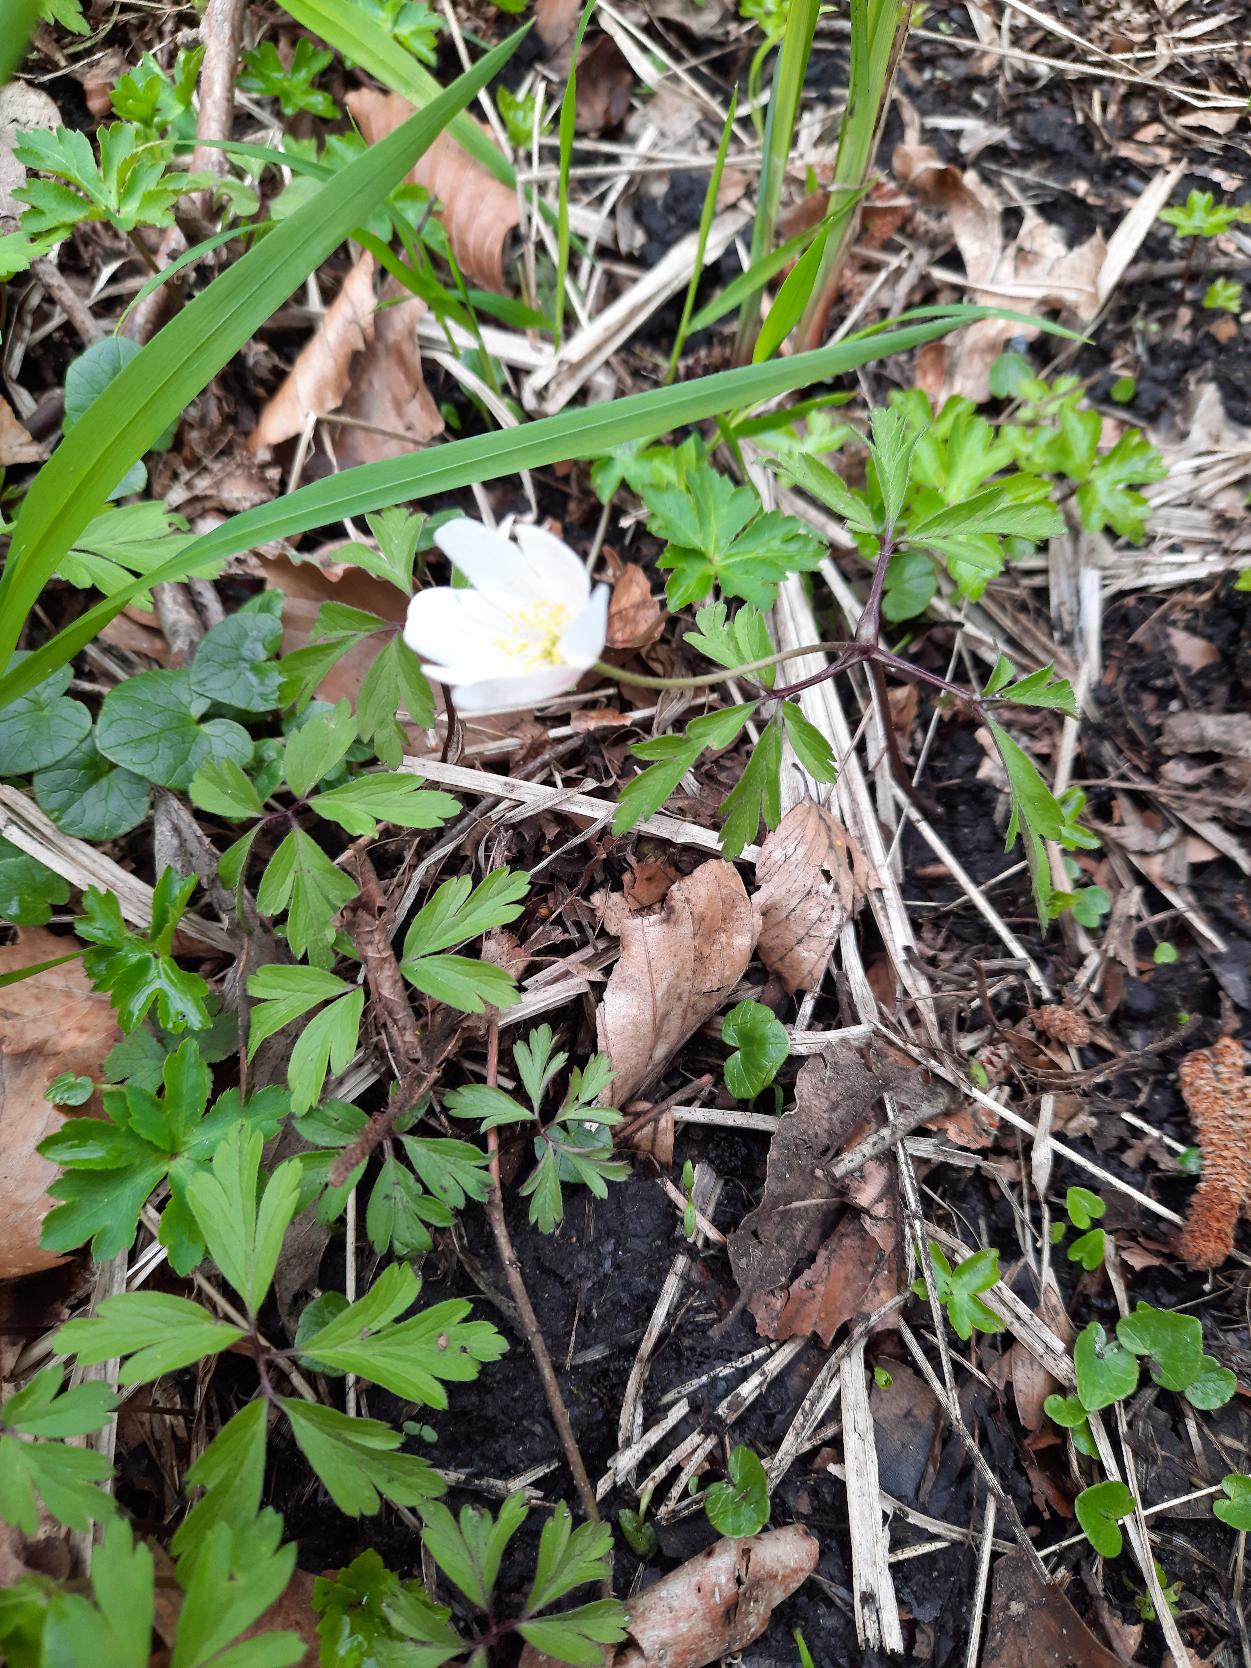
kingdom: Plantae
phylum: Tracheophyta
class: Magnoliopsida
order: Ranunculales
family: Ranunculaceae
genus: Anemone
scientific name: Anemone nemorosa
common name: Hvid anemone
